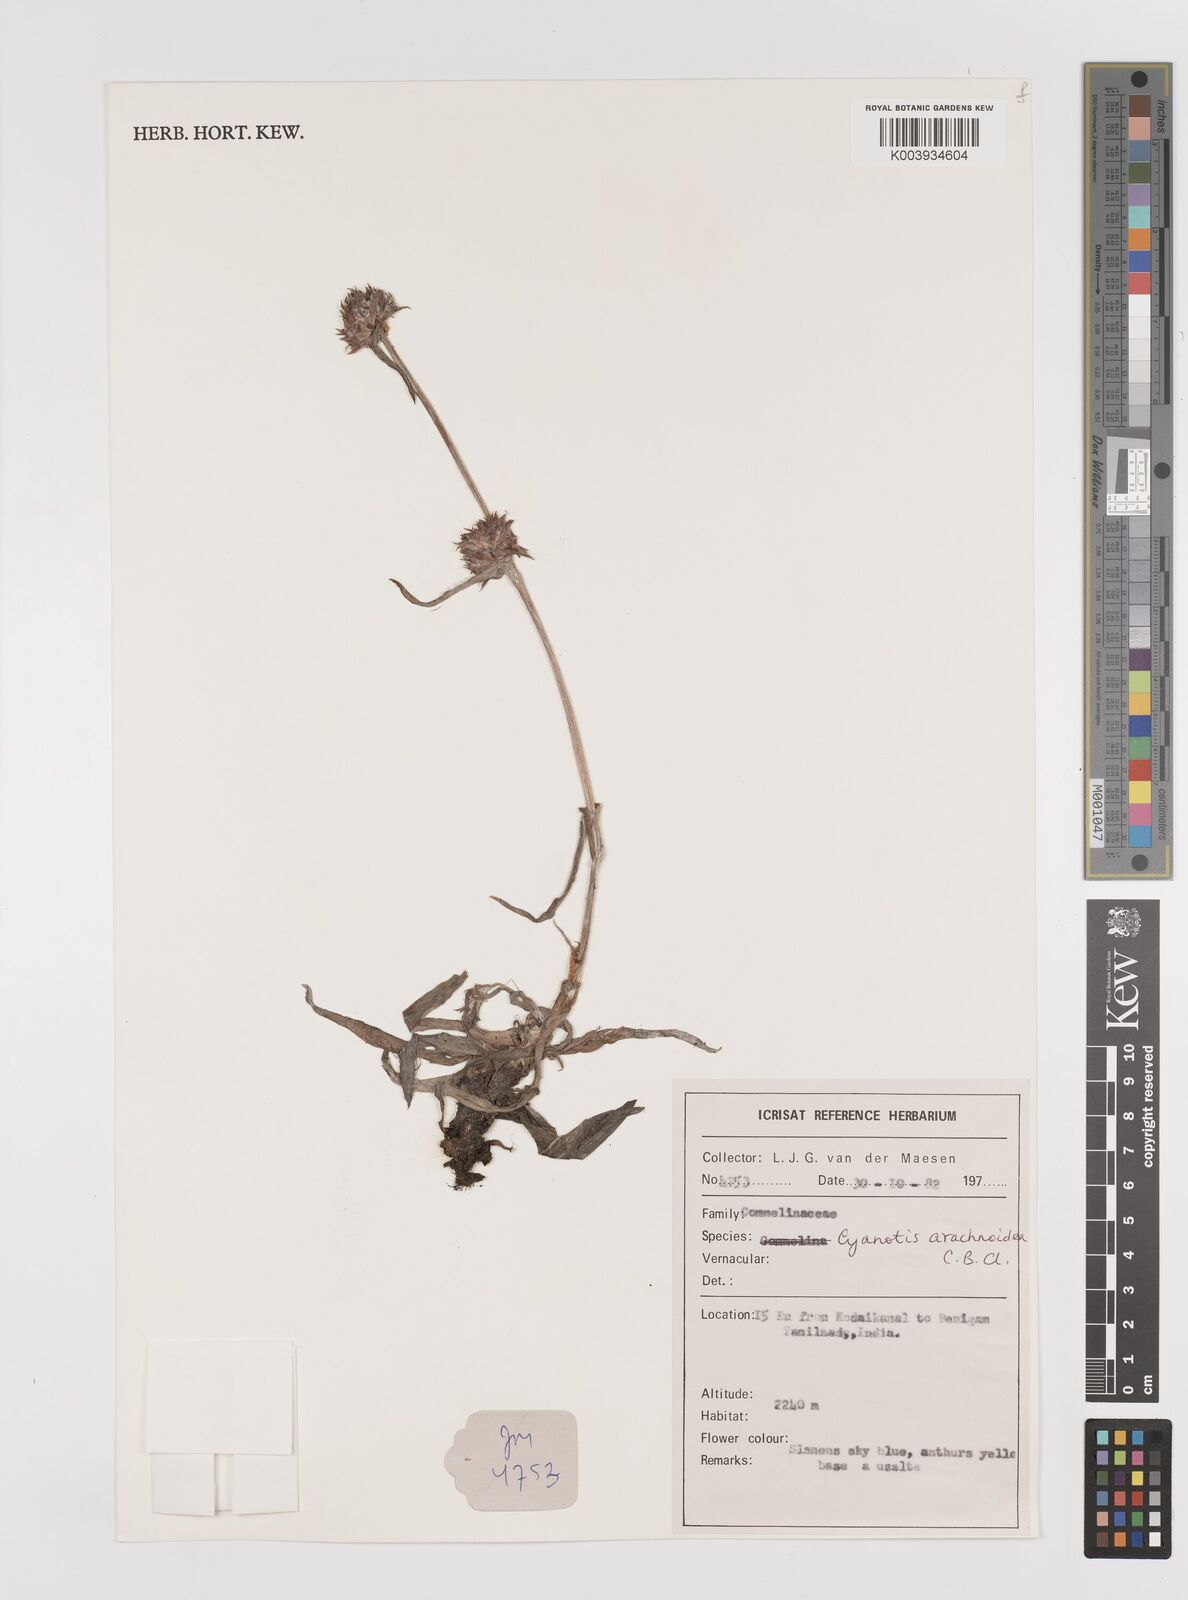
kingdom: Plantae
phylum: Tracheophyta
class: Liliopsida
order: Commelinales
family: Commelinaceae
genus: Cyanotis
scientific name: Cyanotis arachnoidea
